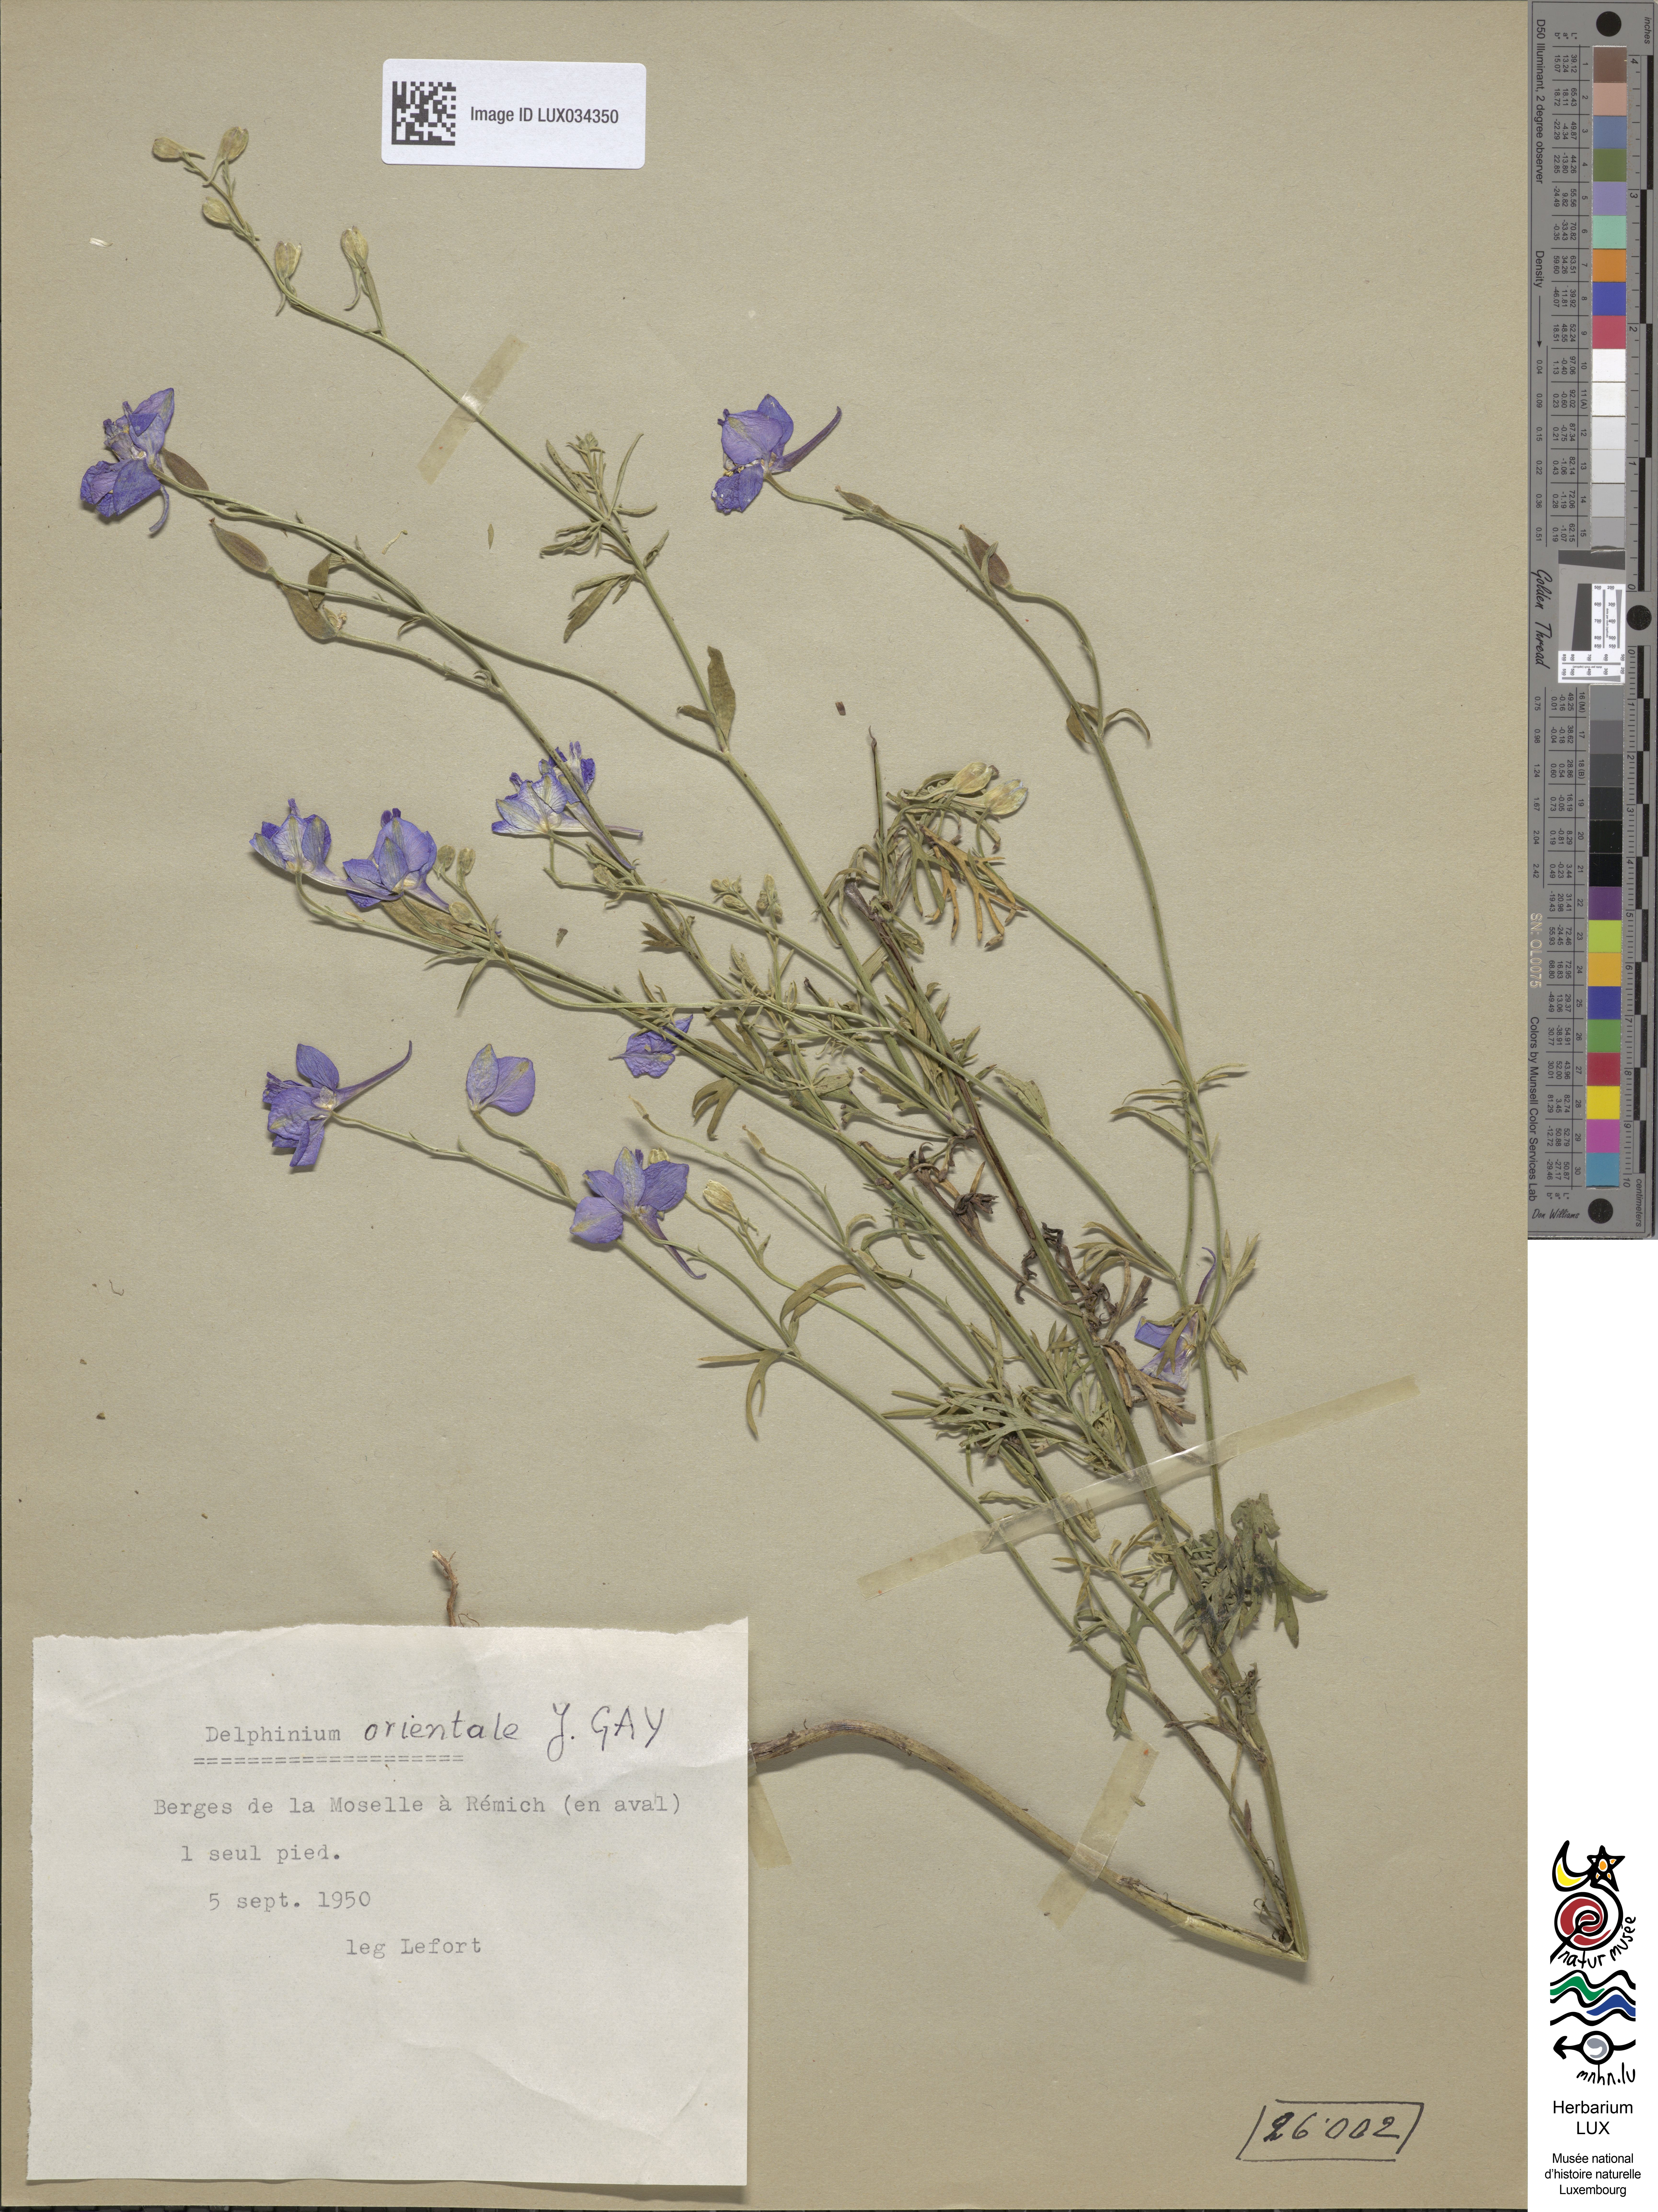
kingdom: Plantae
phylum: Tracheophyta
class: Magnoliopsida
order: Ranunculales
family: Ranunculaceae
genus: Delphinium
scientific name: Delphinium hispanicum
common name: Oriental knight's-spur
